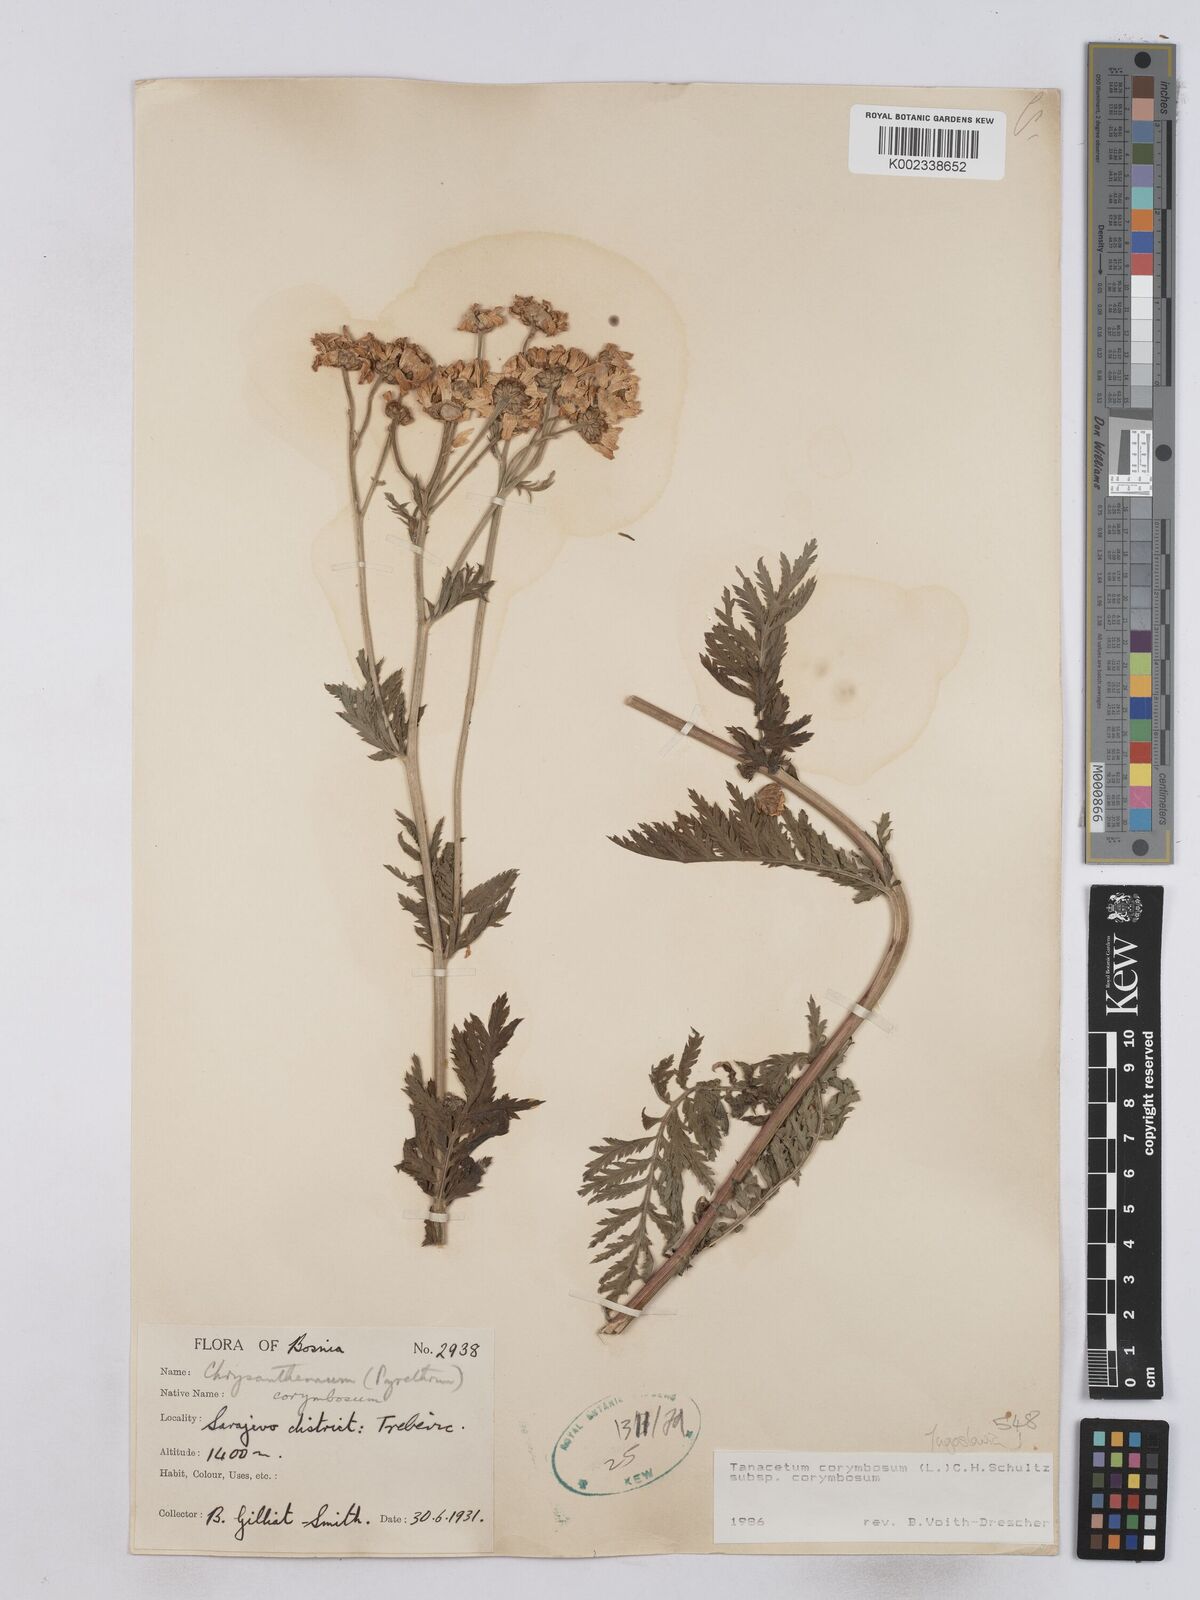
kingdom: Plantae
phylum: Tracheophyta
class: Magnoliopsida
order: Asterales
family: Asteraceae
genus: Tanacetum
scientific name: Tanacetum corymbosum
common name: Scentless feverfew
